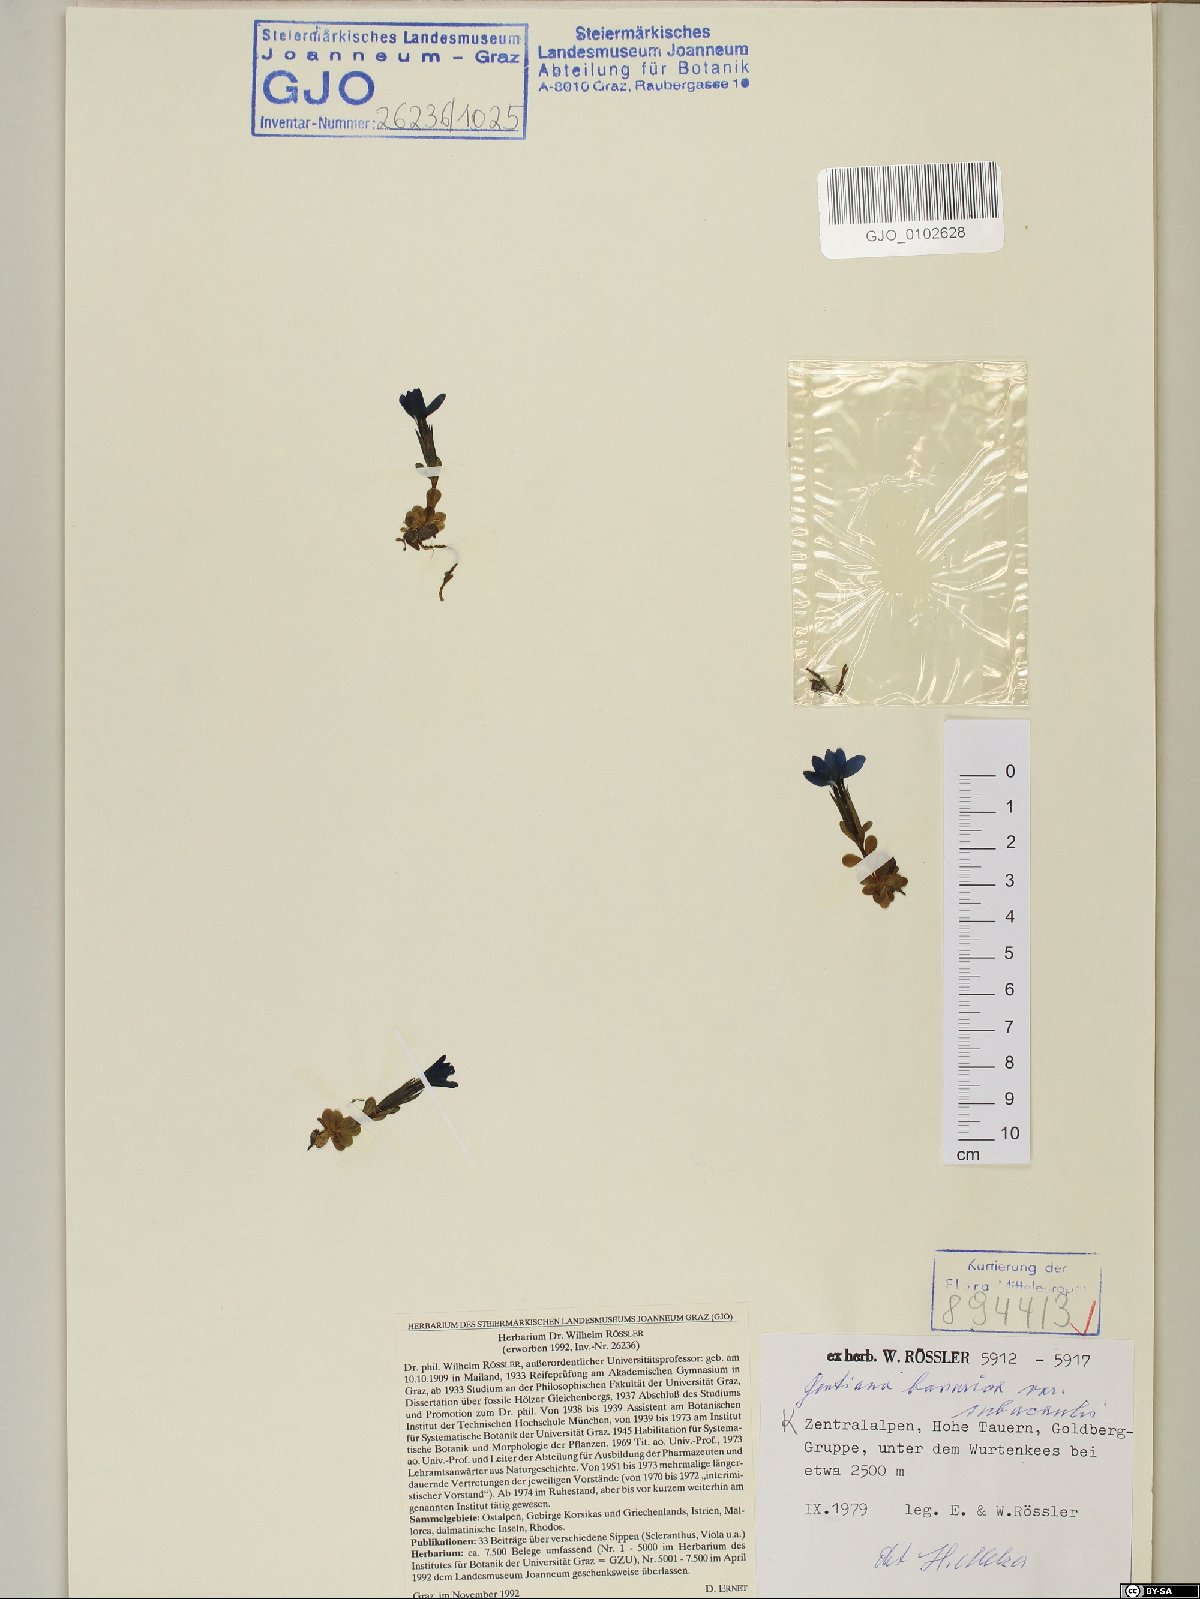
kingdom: Plantae
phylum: Tracheophyta
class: Magnoliopsida
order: Gentianales
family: Gentianaceae
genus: Gentiana
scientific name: Gentiana bavarica
